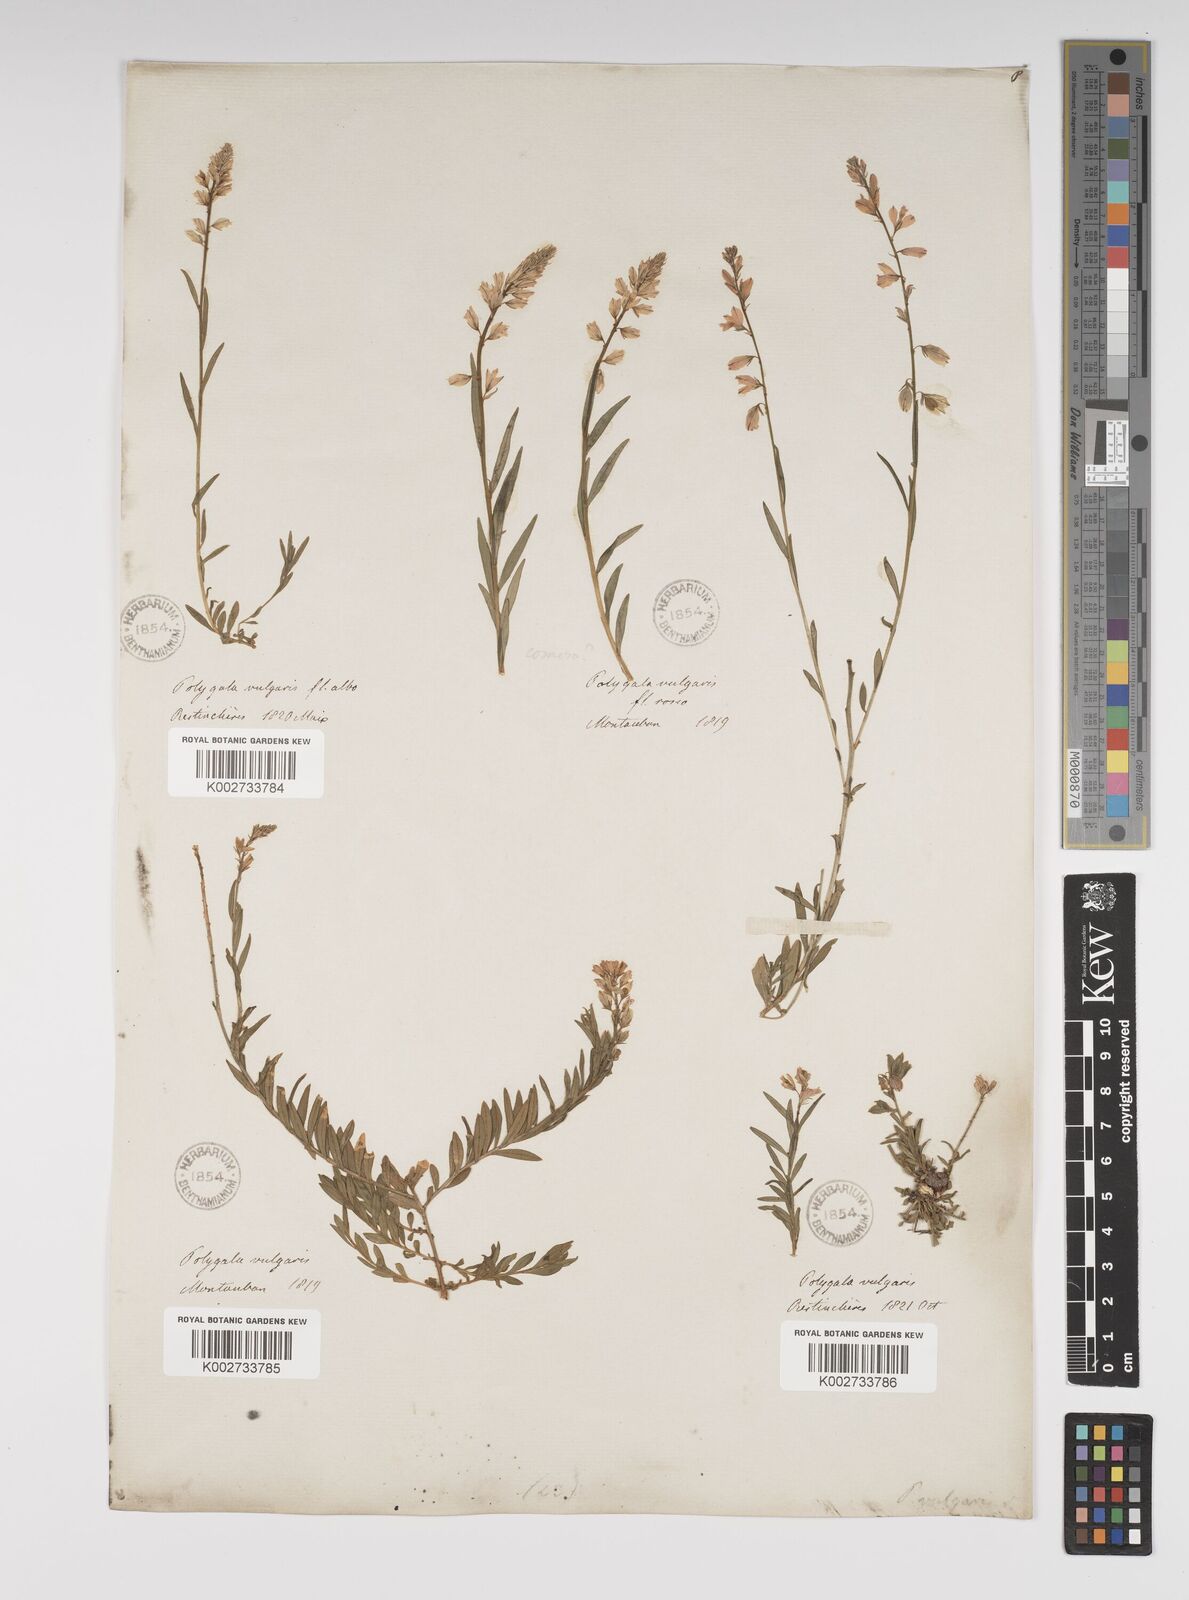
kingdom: Plantae
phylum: Tracheophyta
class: Magnoliopsida
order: Fabales
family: Polygalaceae
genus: Polygala
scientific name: Polygala vulgaris
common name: Common milkwort
